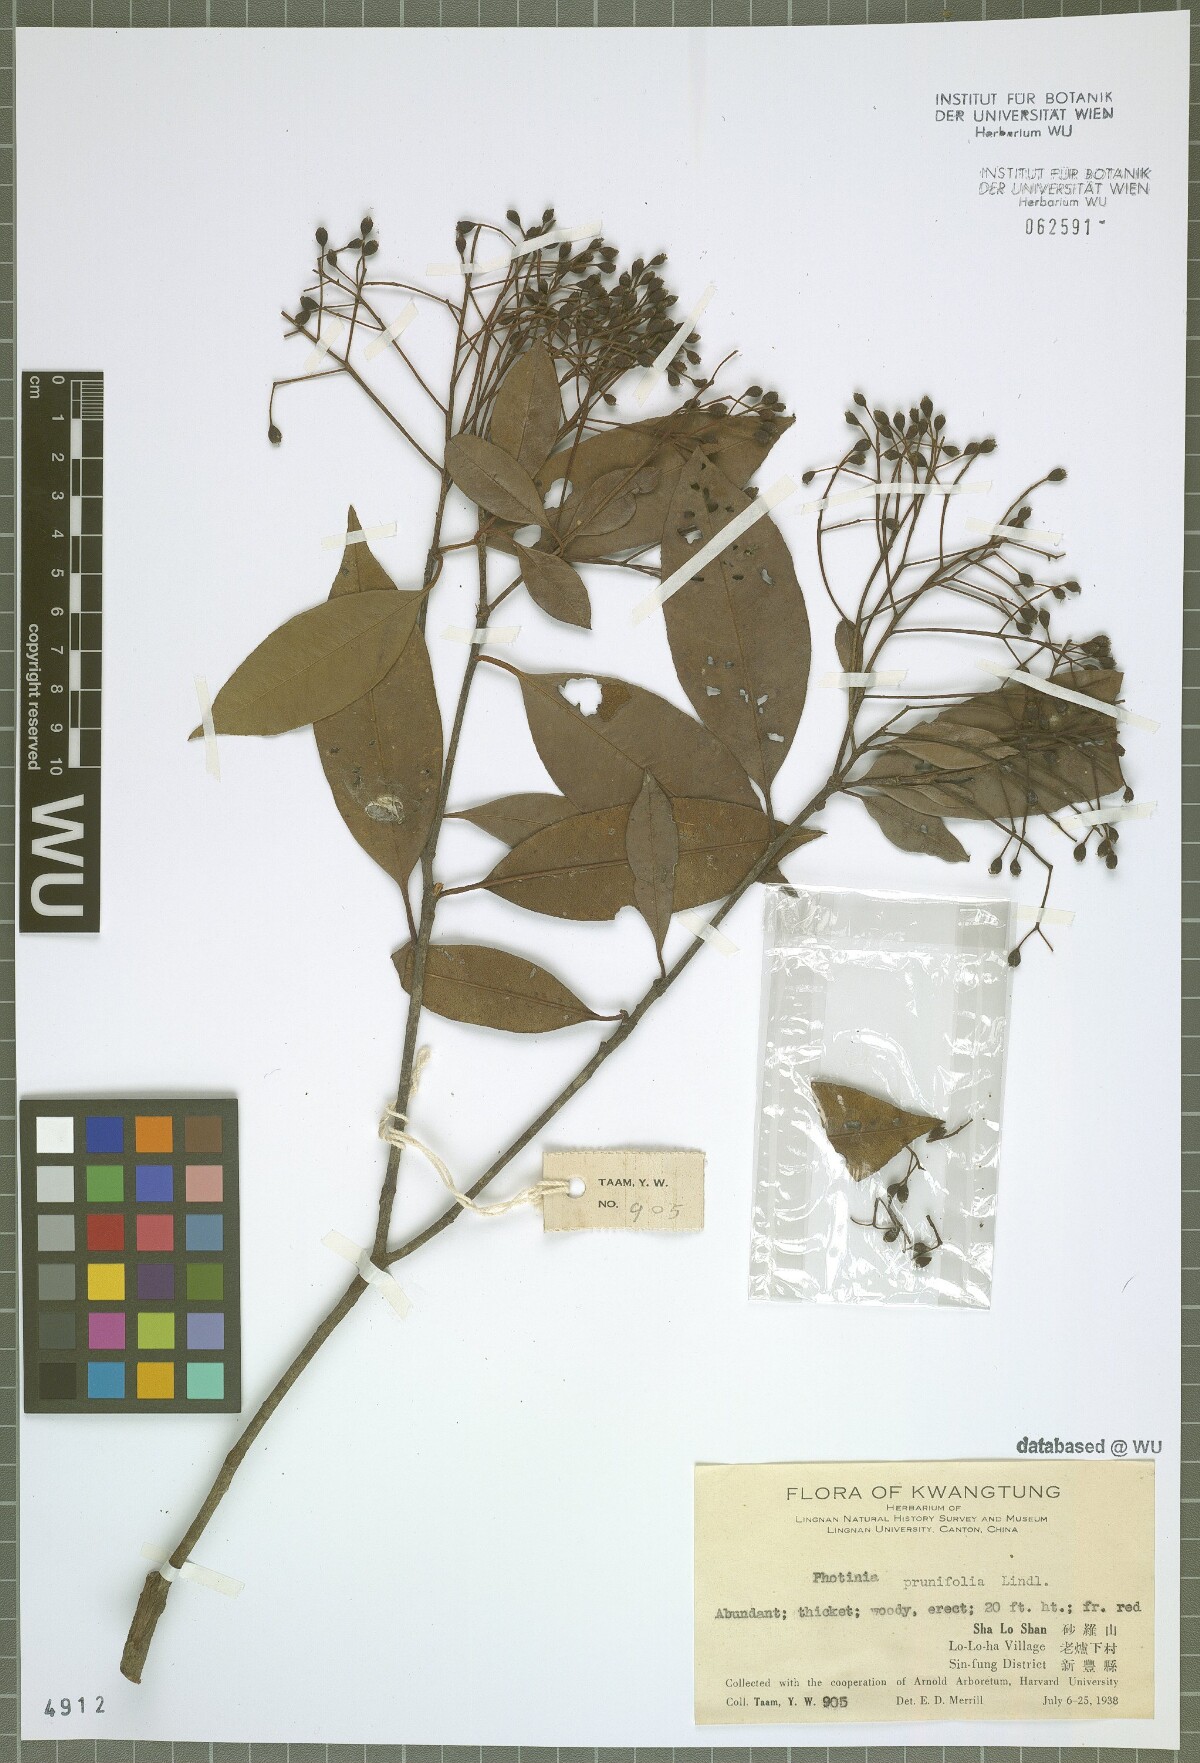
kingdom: Plantae
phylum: Tracheophyta
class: Magnoliopsida
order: Rosales
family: Rosaceae
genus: Photinia
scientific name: Photinia prunifolia
